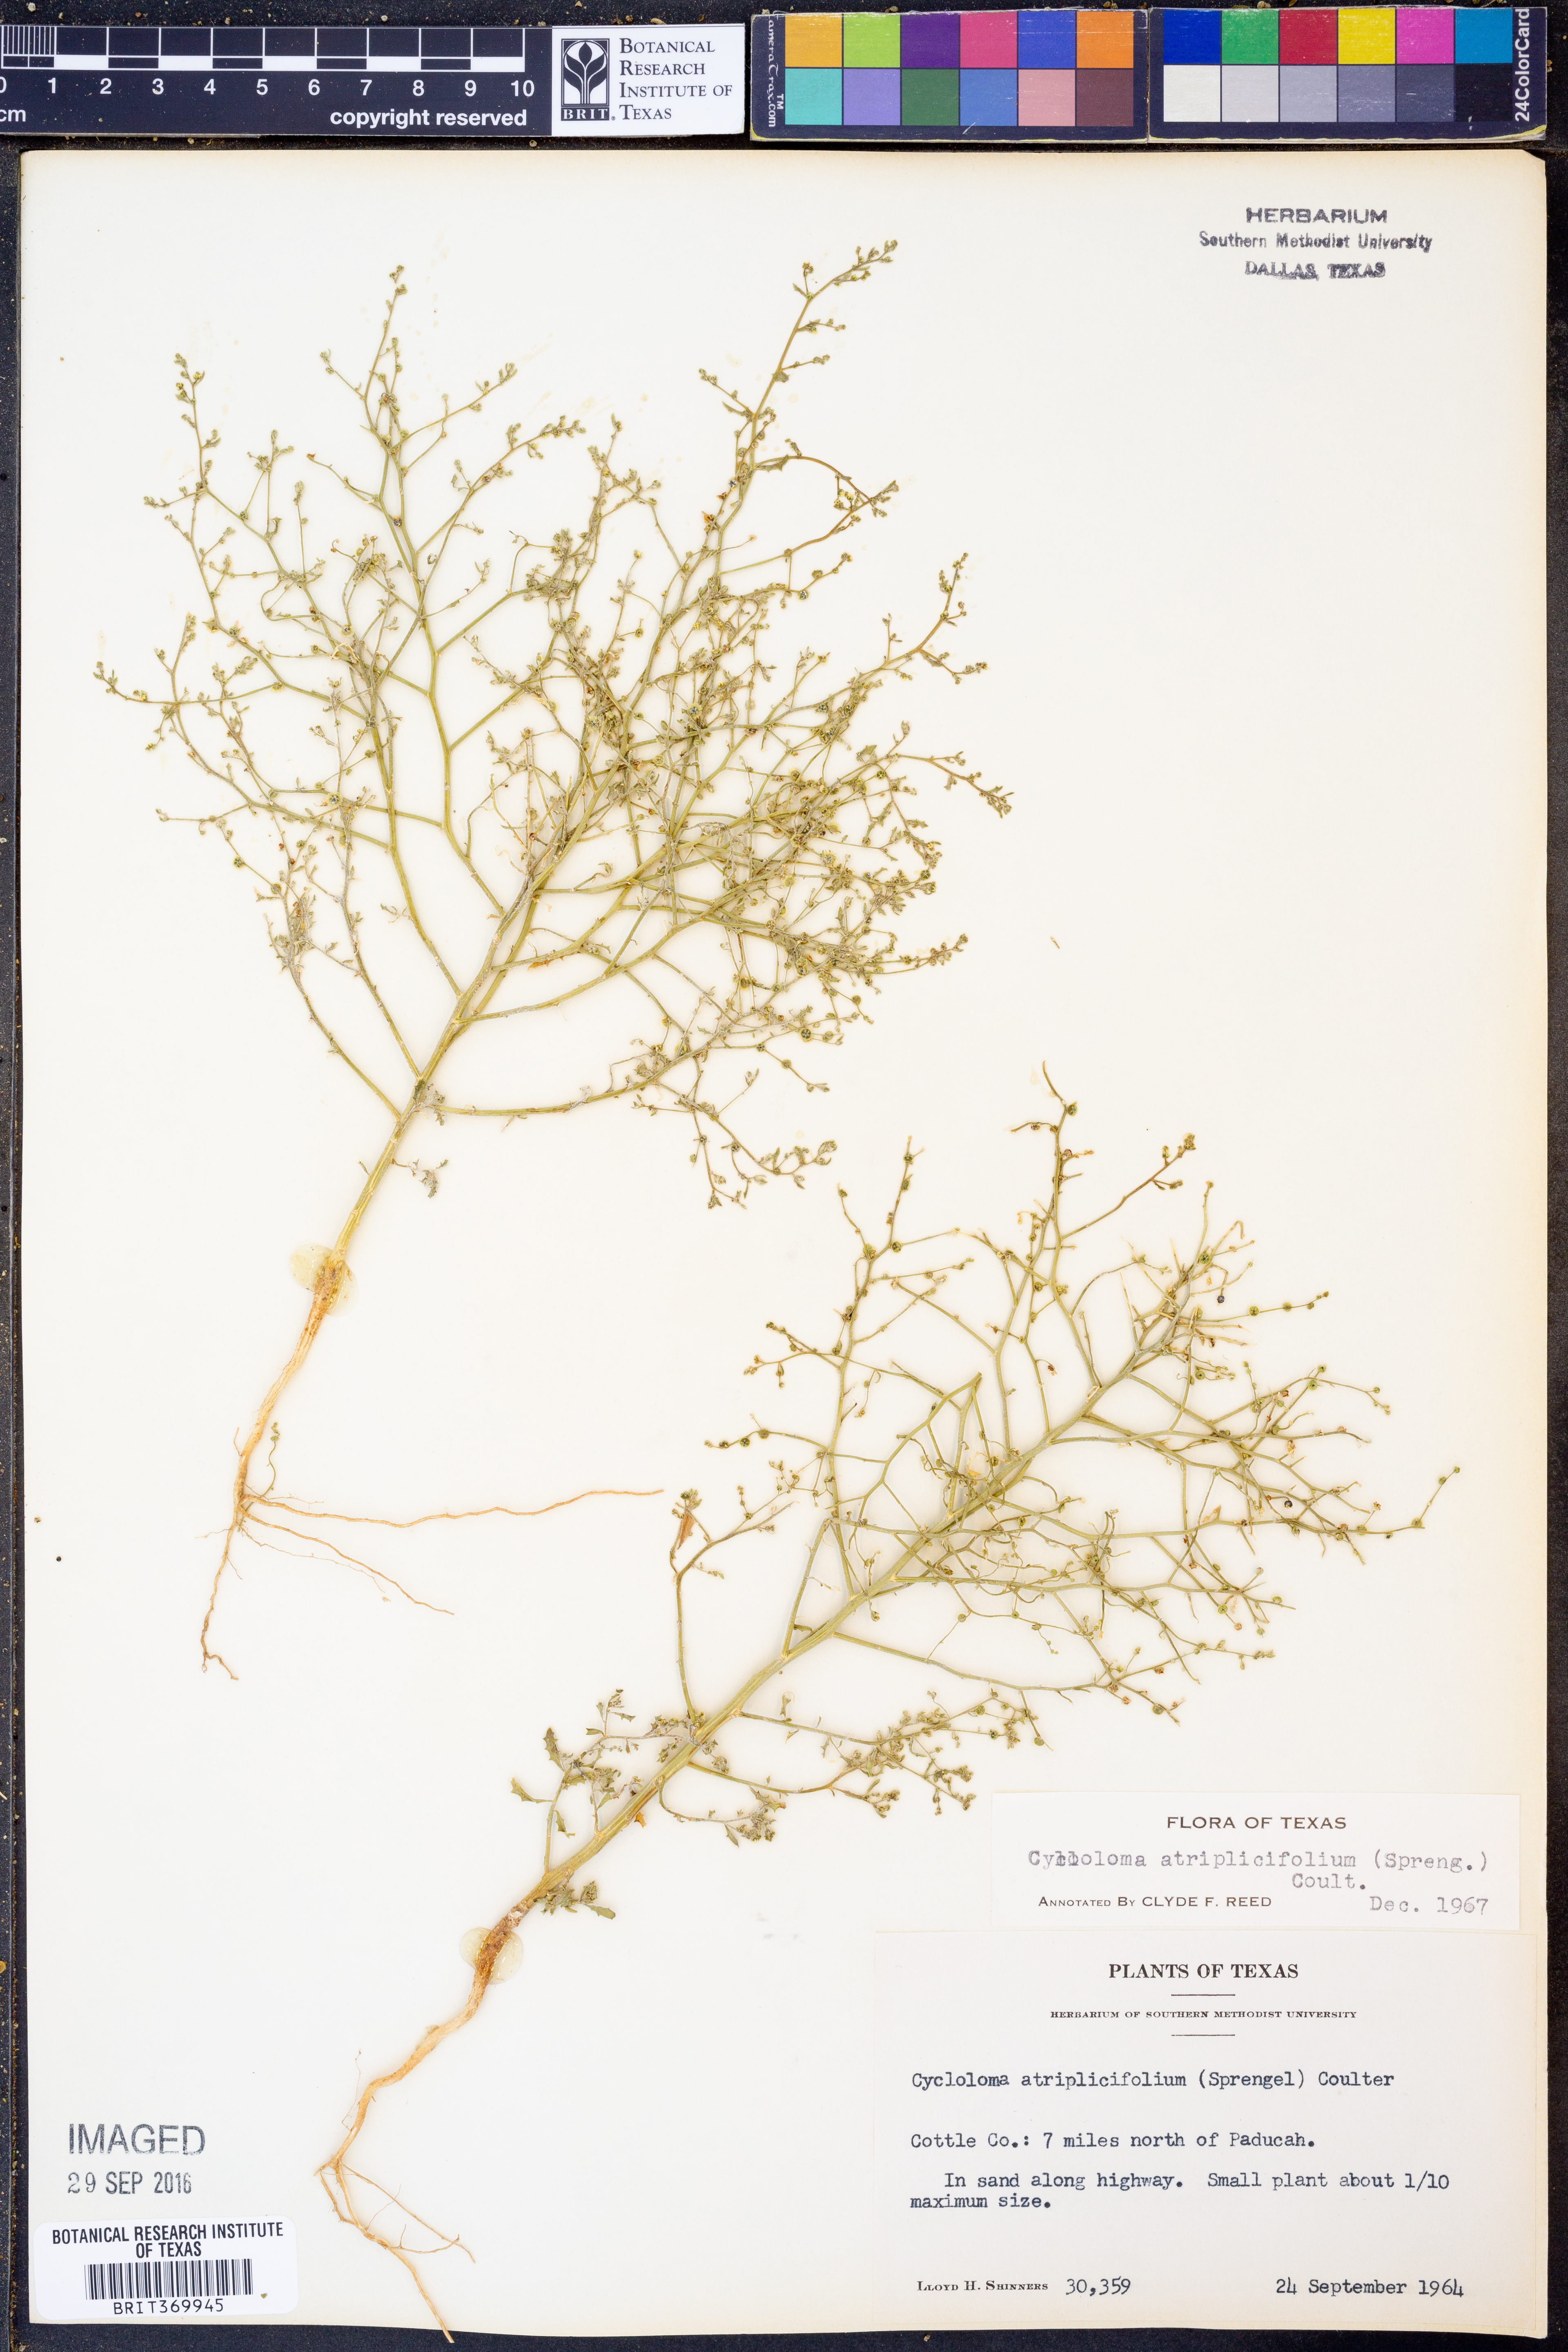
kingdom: Plantae
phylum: Tracheophyta
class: Magnoliopsida
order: Caryophyllales
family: Amaranthaceae
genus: Dysphania
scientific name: Dysphania atriplicifolia
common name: Plains tumbleweed
